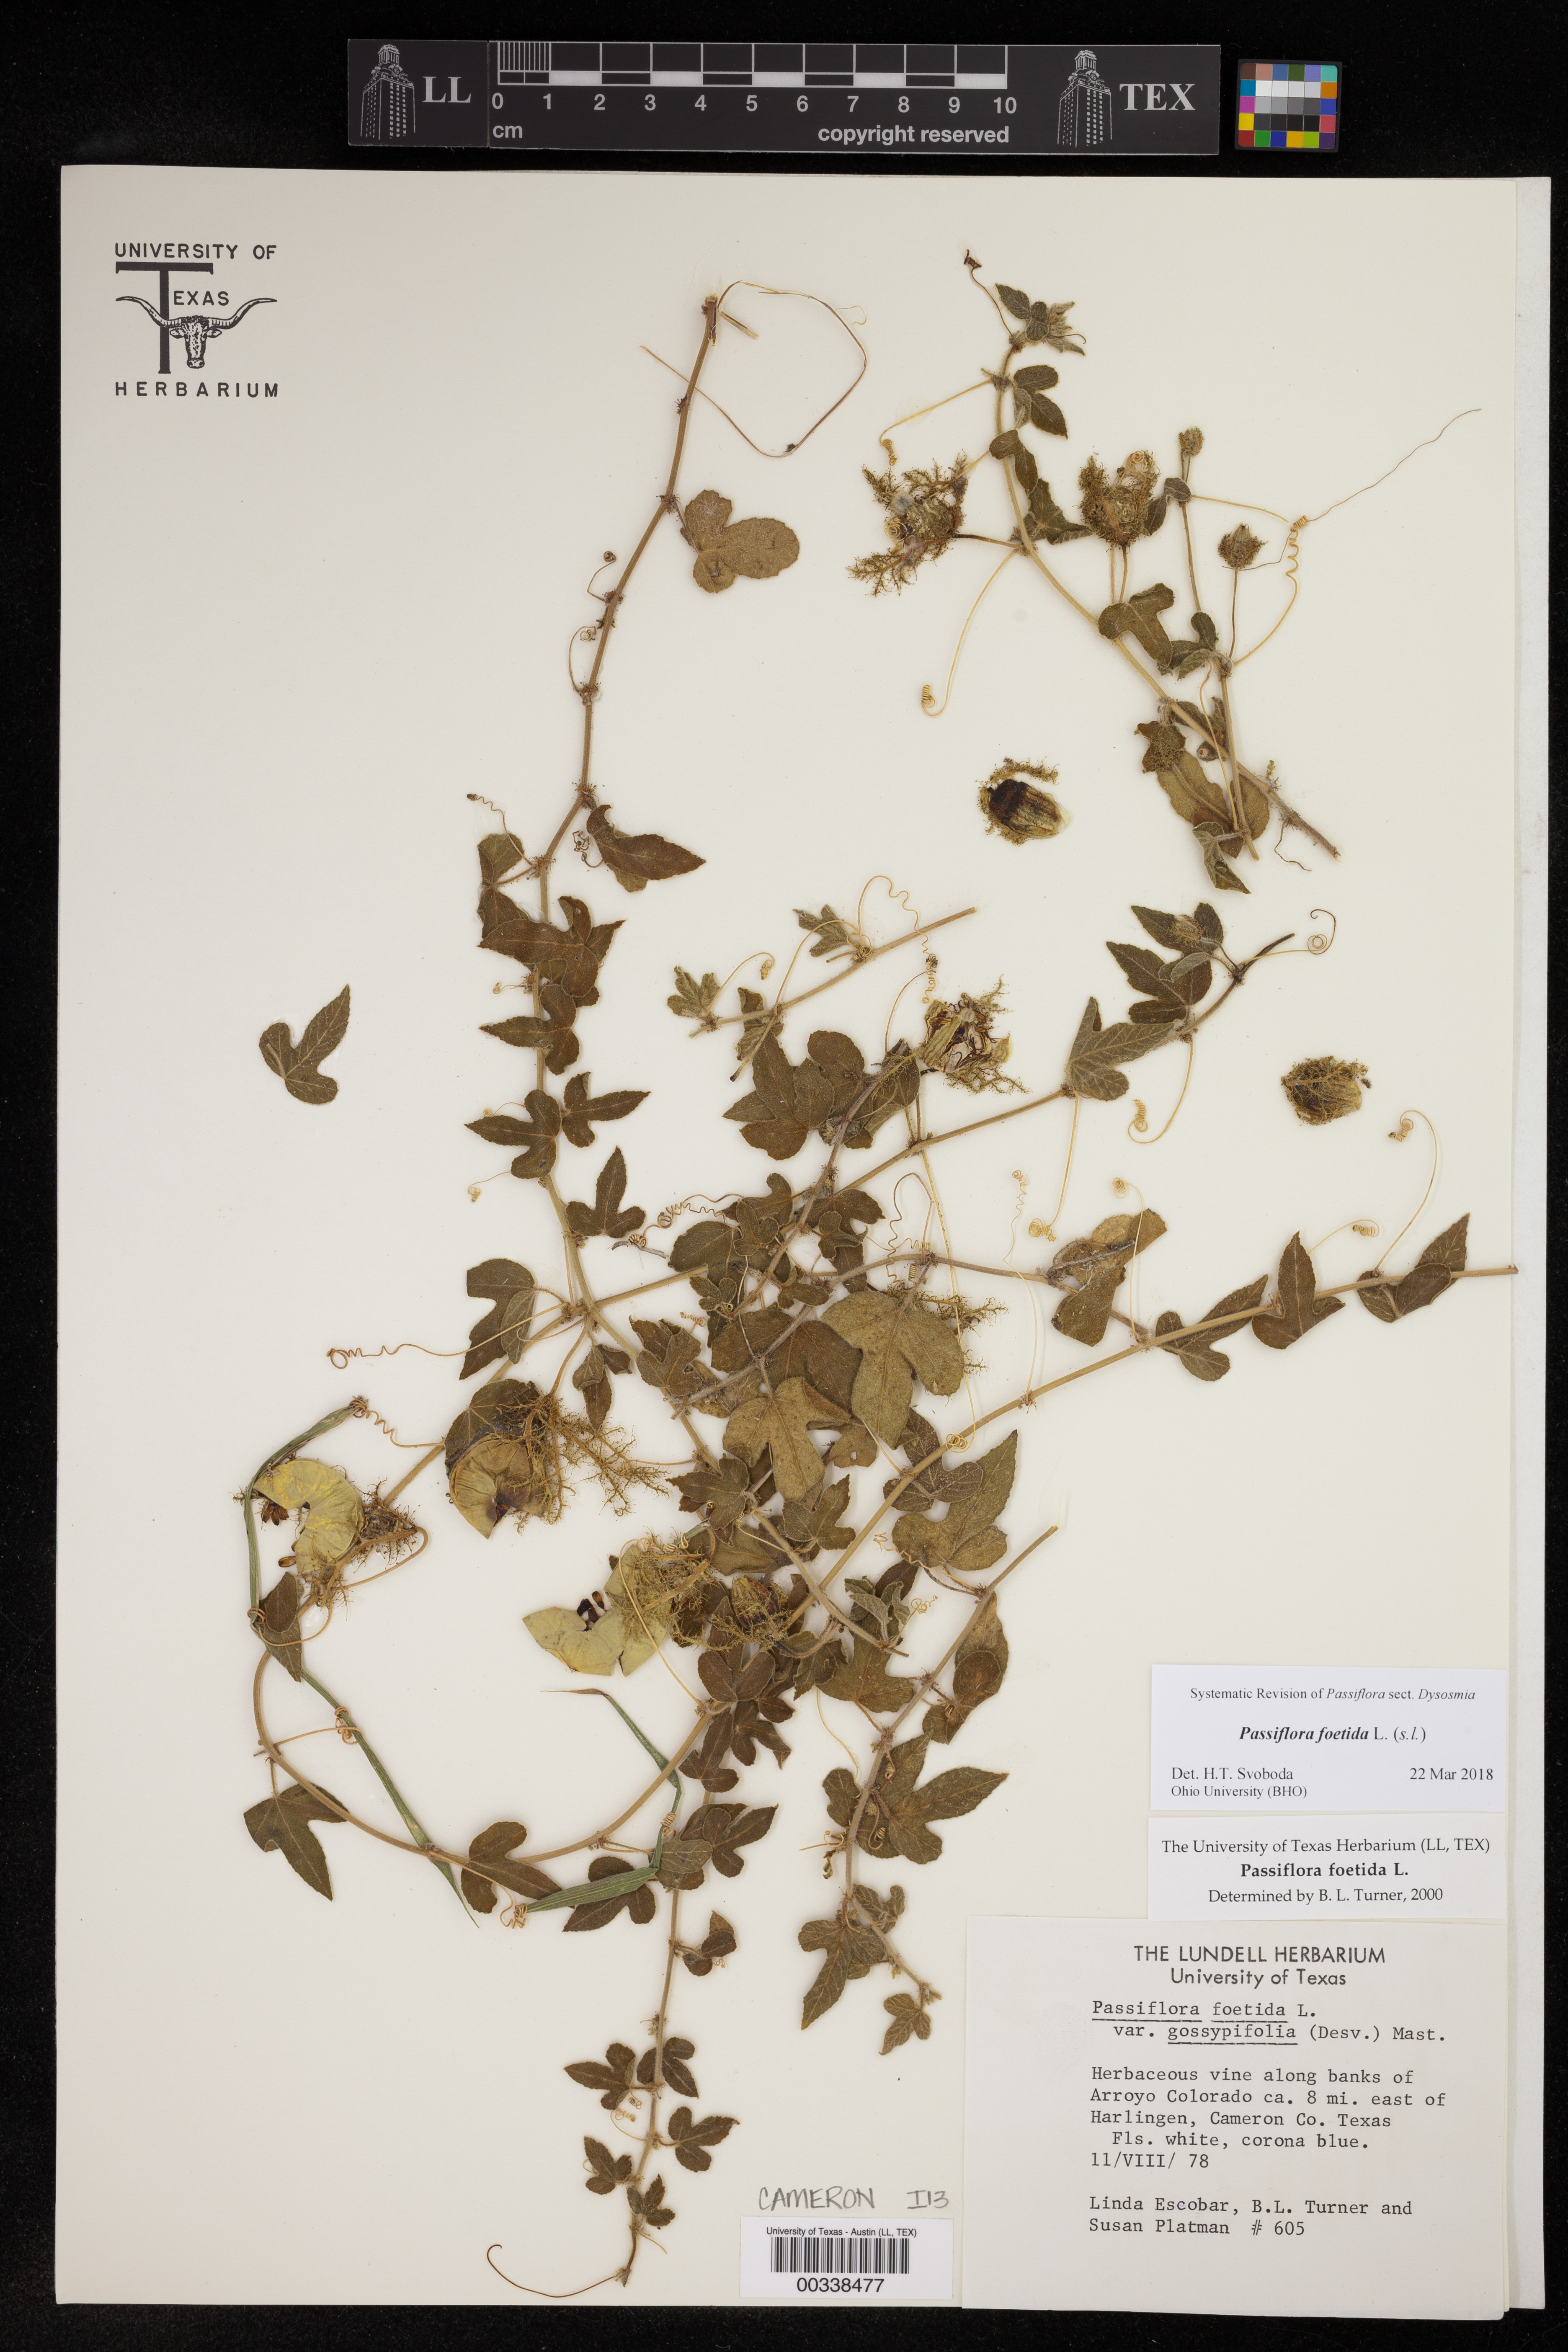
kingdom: Plantae
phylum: Tracheophyta
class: Magnoliopsida
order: Malpighiales
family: Passifloraceae
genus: Passiflora
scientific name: Passiflora foetida
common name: Fetid passionflower
